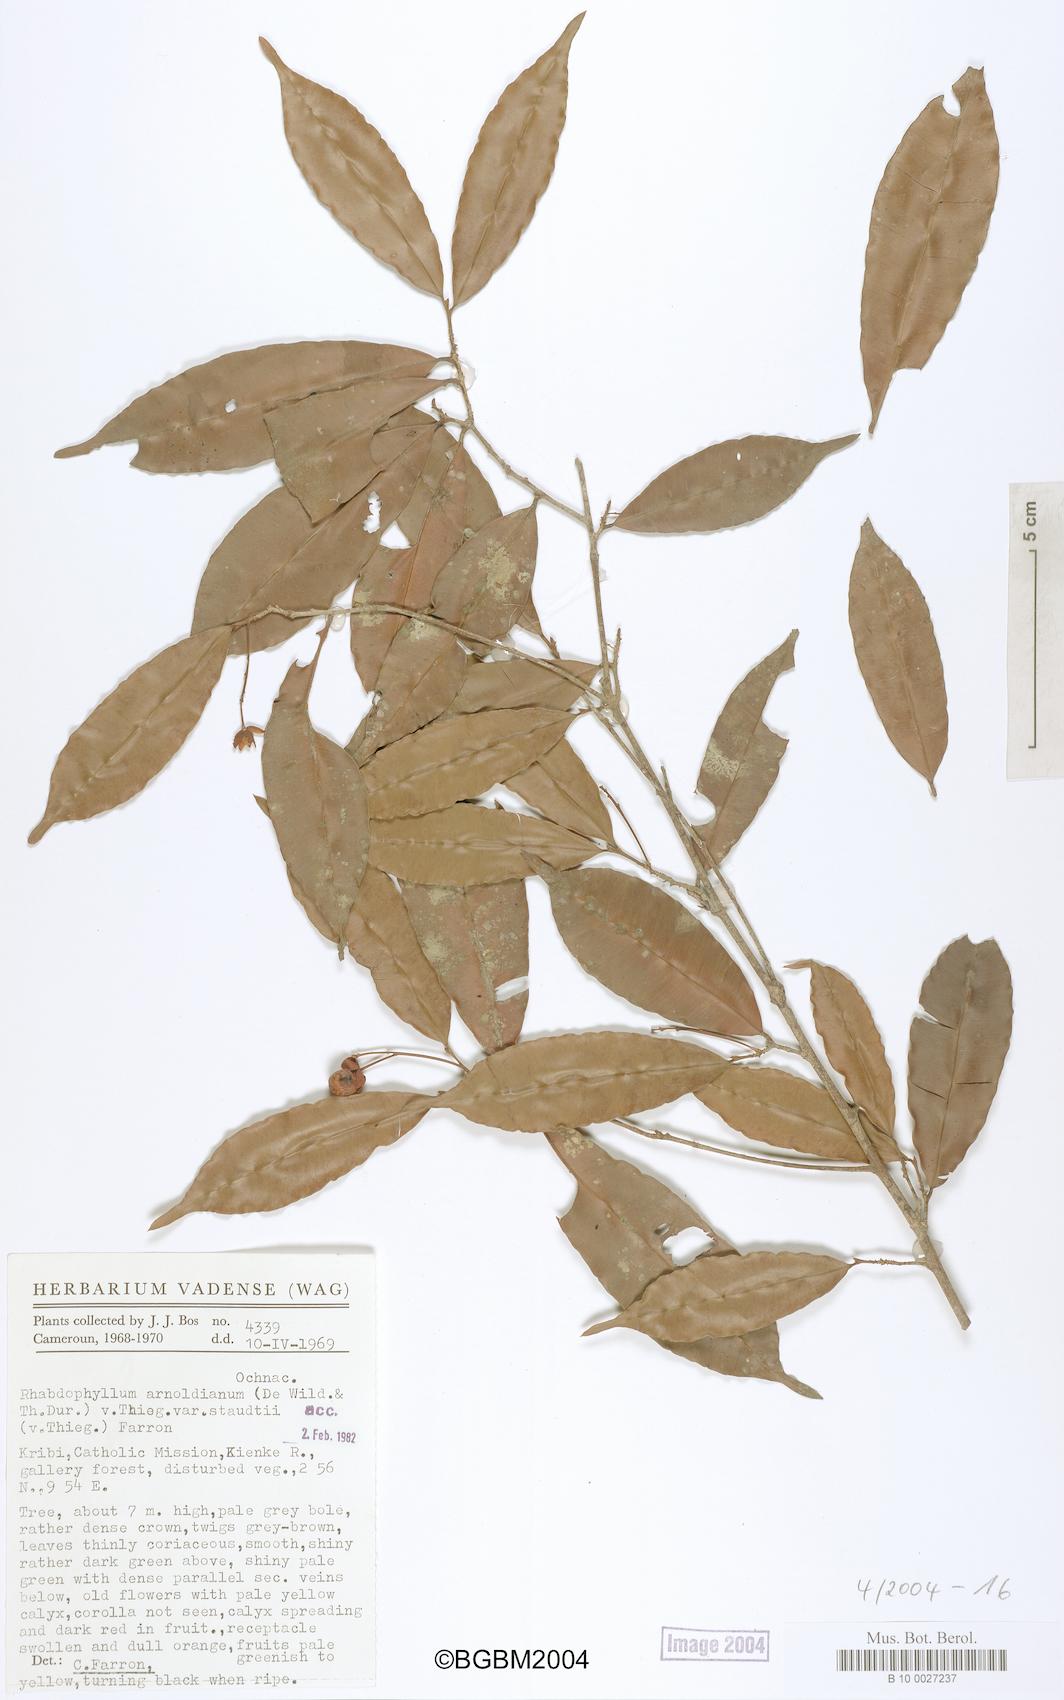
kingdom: Plantae
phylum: Tracheophyta
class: Magnoliopsida
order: Malpighiales
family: Ochnaceae
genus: Rhabdophyllum
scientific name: Rhabdophyllum arnoldianum
